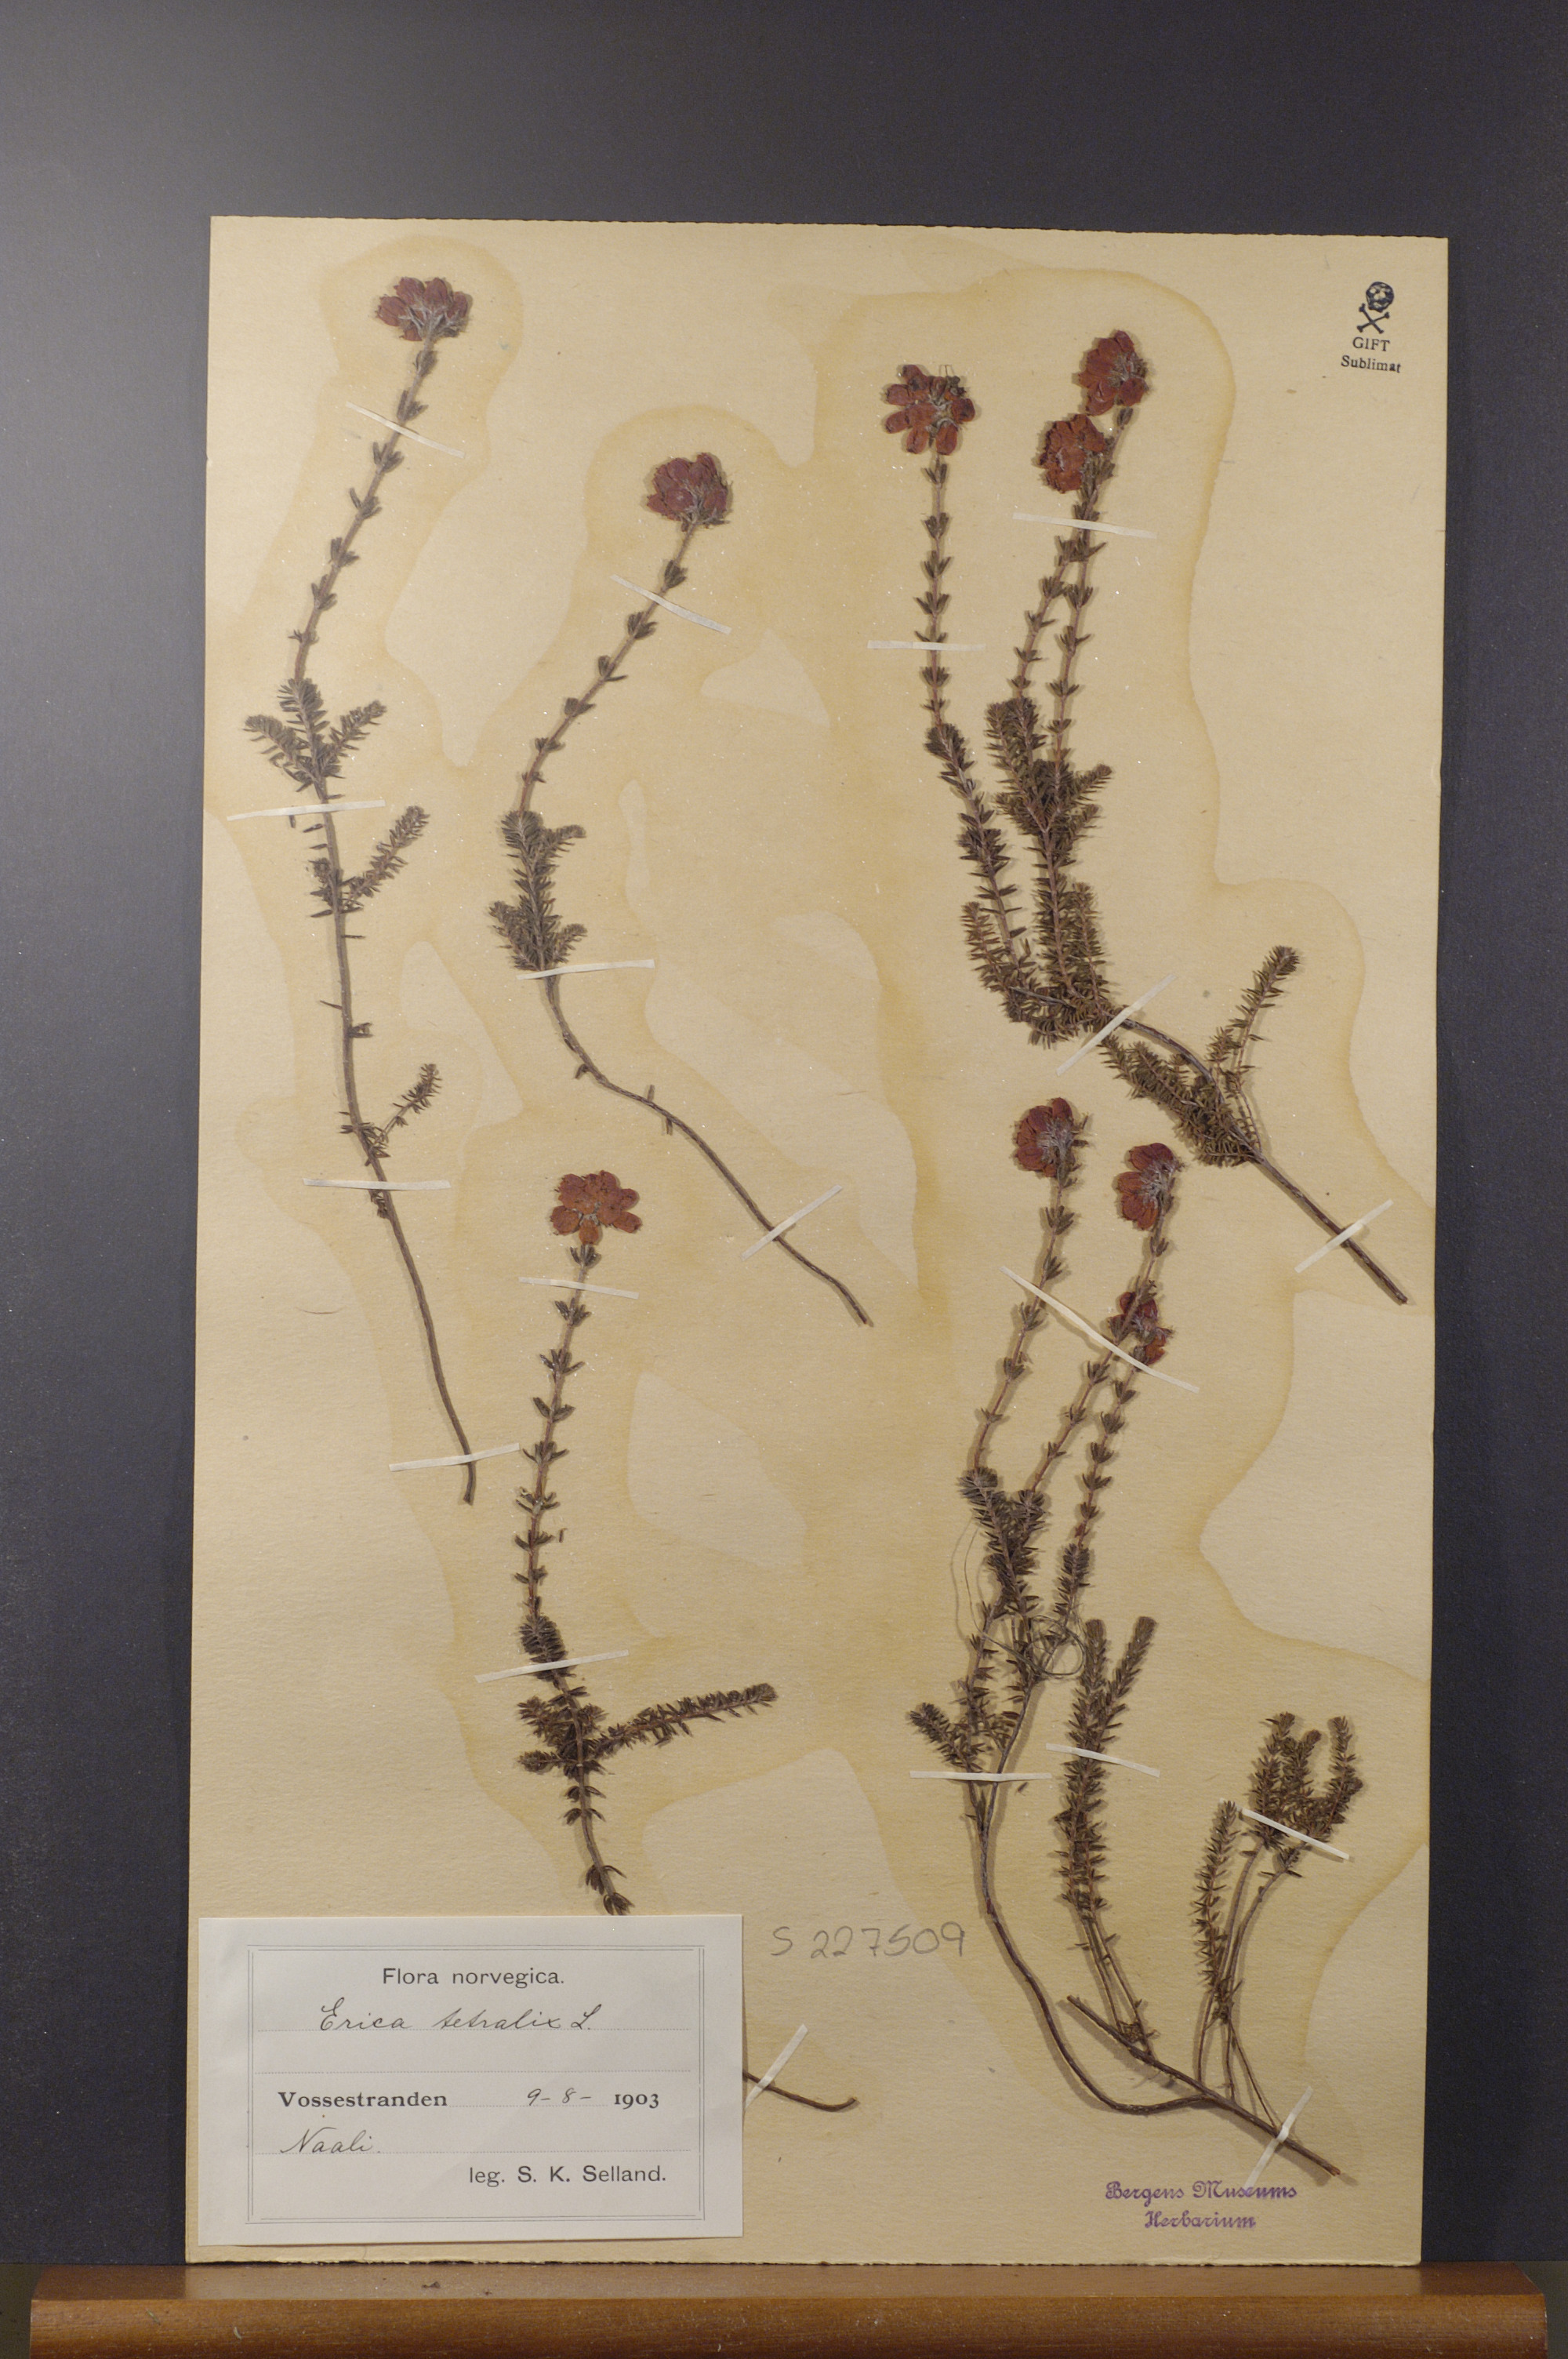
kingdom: Plantae
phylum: Tracheophyta
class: Magnoliopsida
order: Ericales
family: Ericaceae
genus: Erica
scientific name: Erica tetralix
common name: Cross-leaved heath
